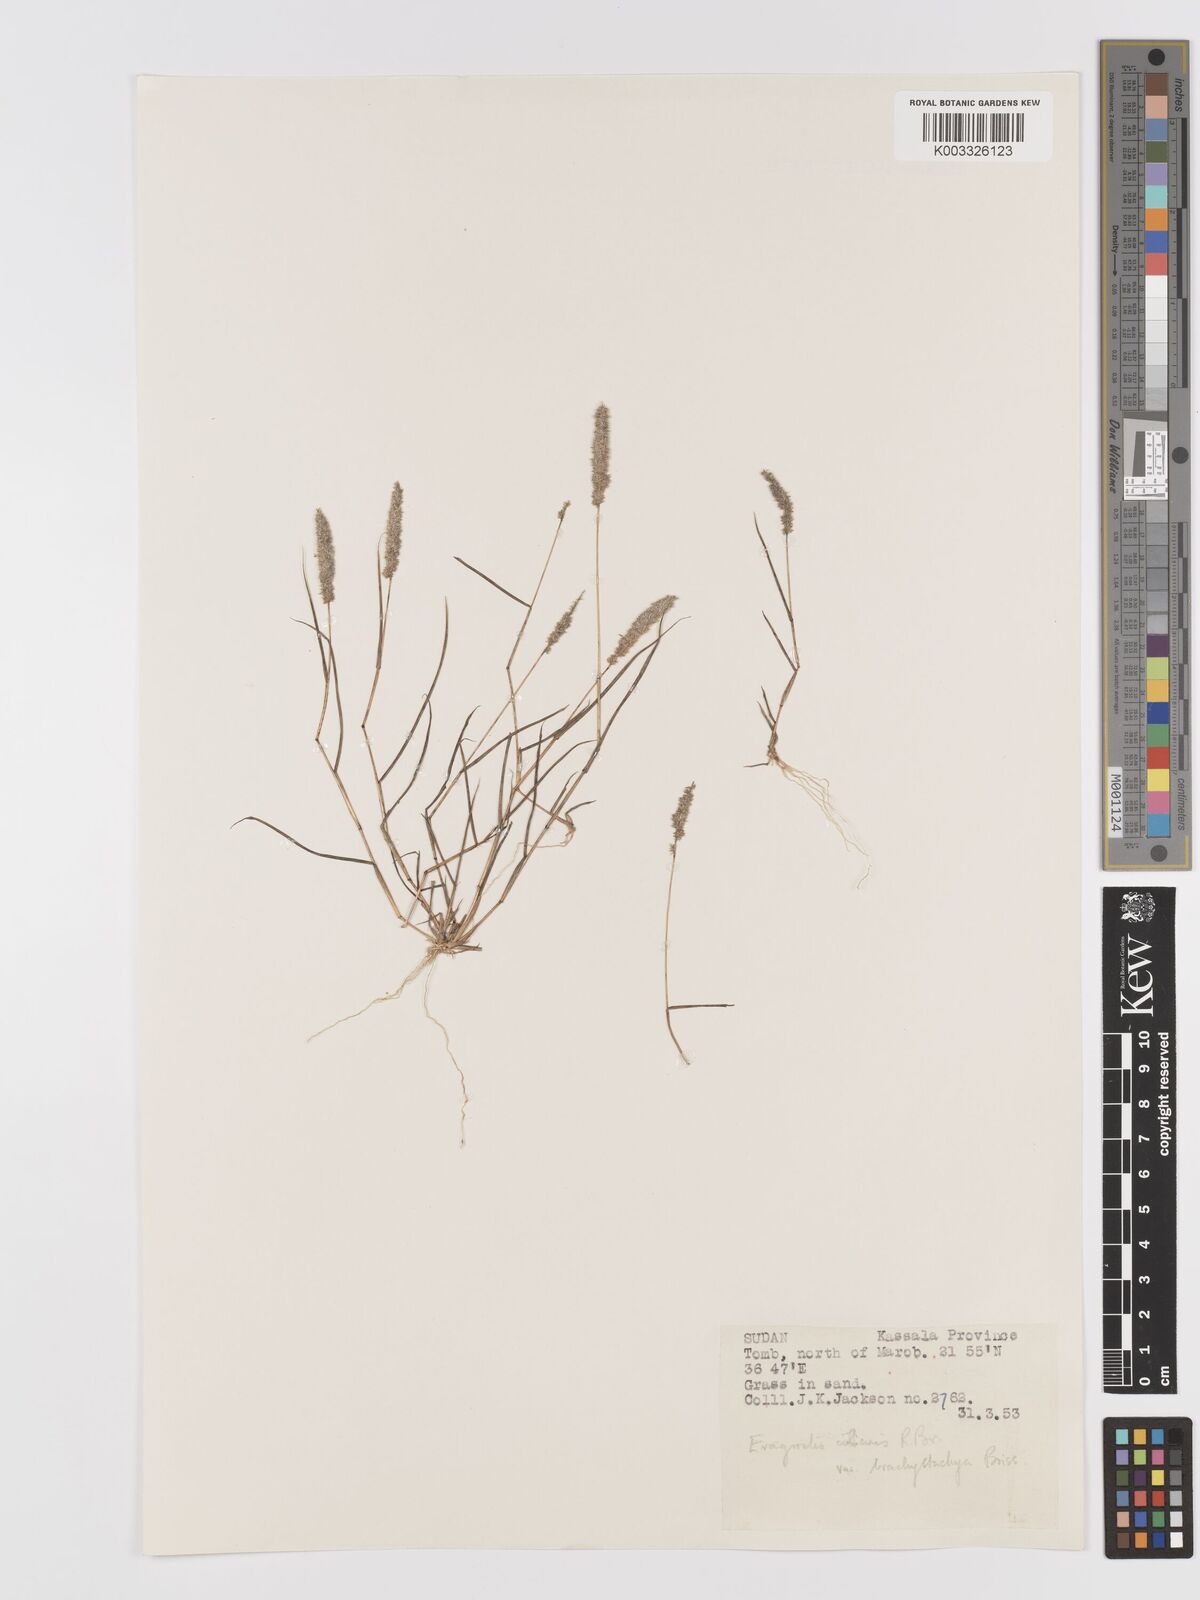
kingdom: Plantae
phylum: Tracheophyta
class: Liliopsida
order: Poales
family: Poaceae
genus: Eragrostis
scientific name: Eragrostis ciliaris
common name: Gophertail lovegrass
